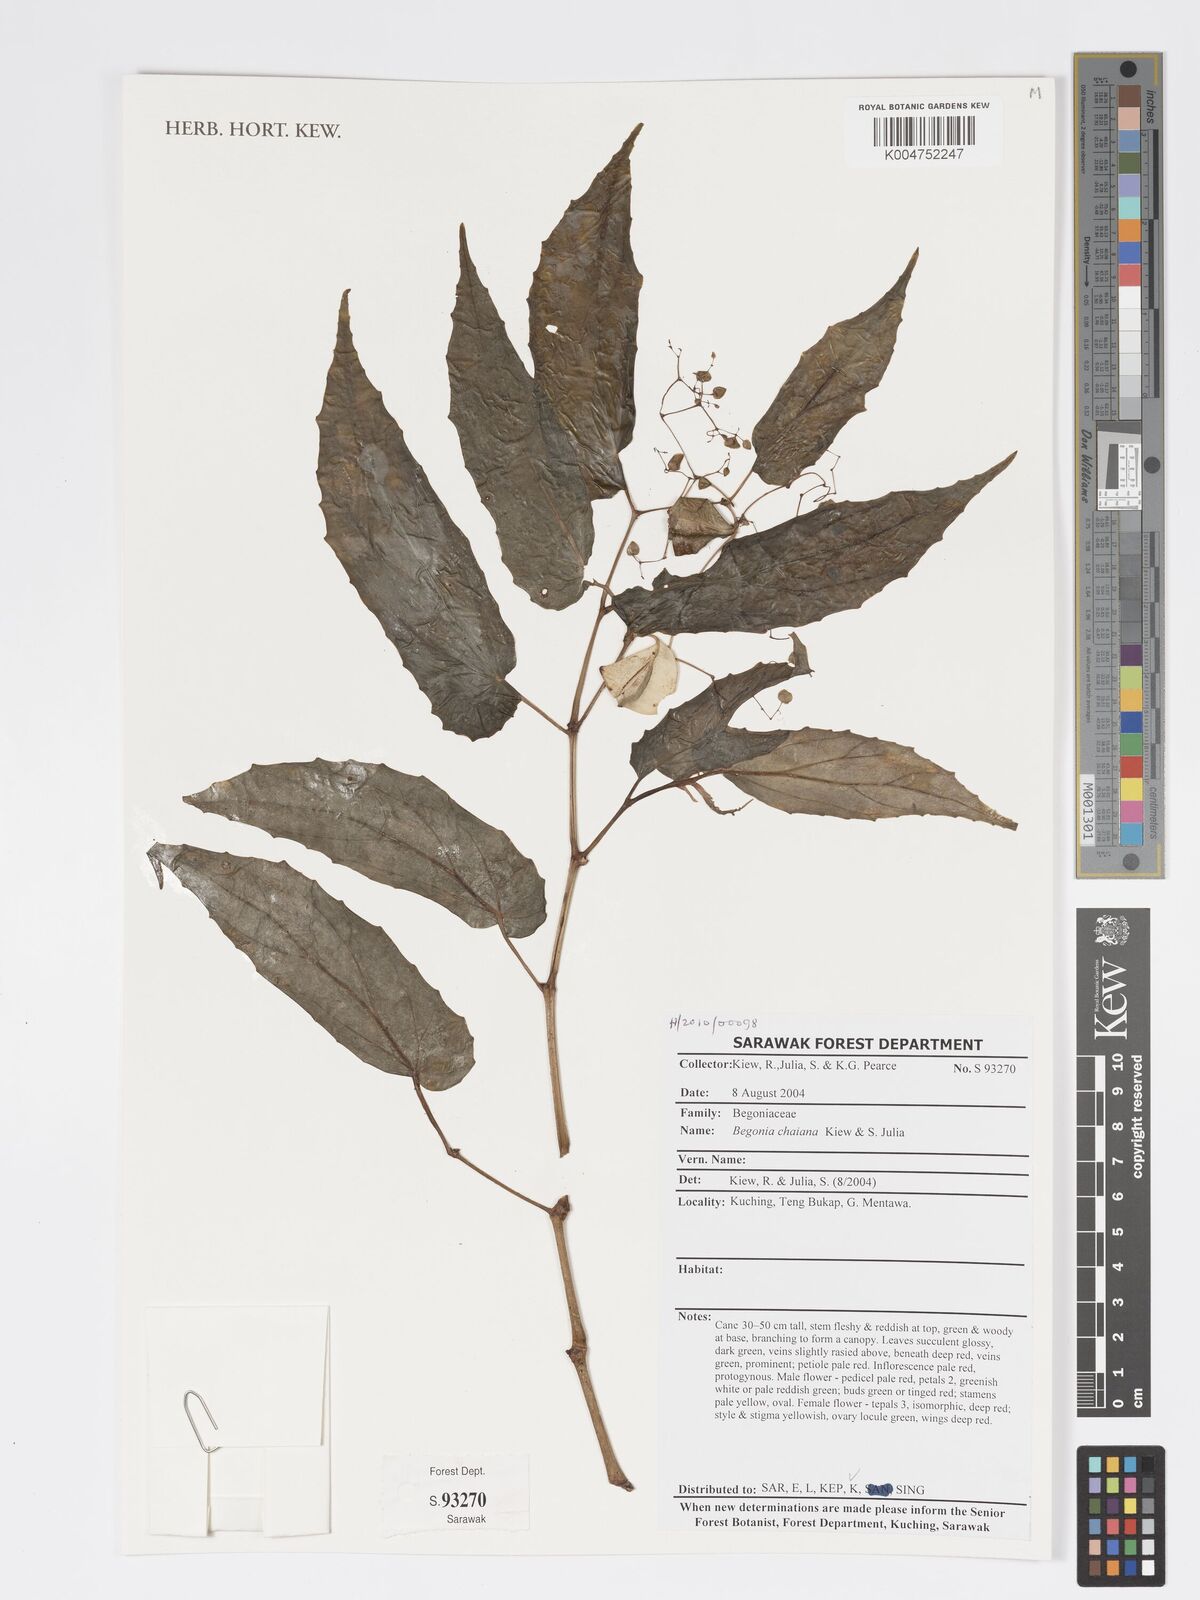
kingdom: Plantae
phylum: Tracheophyta
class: Magnoliopsida
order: Cucurbitales
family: Begoniaceae
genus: Begonia
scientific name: Begonia chaiana
